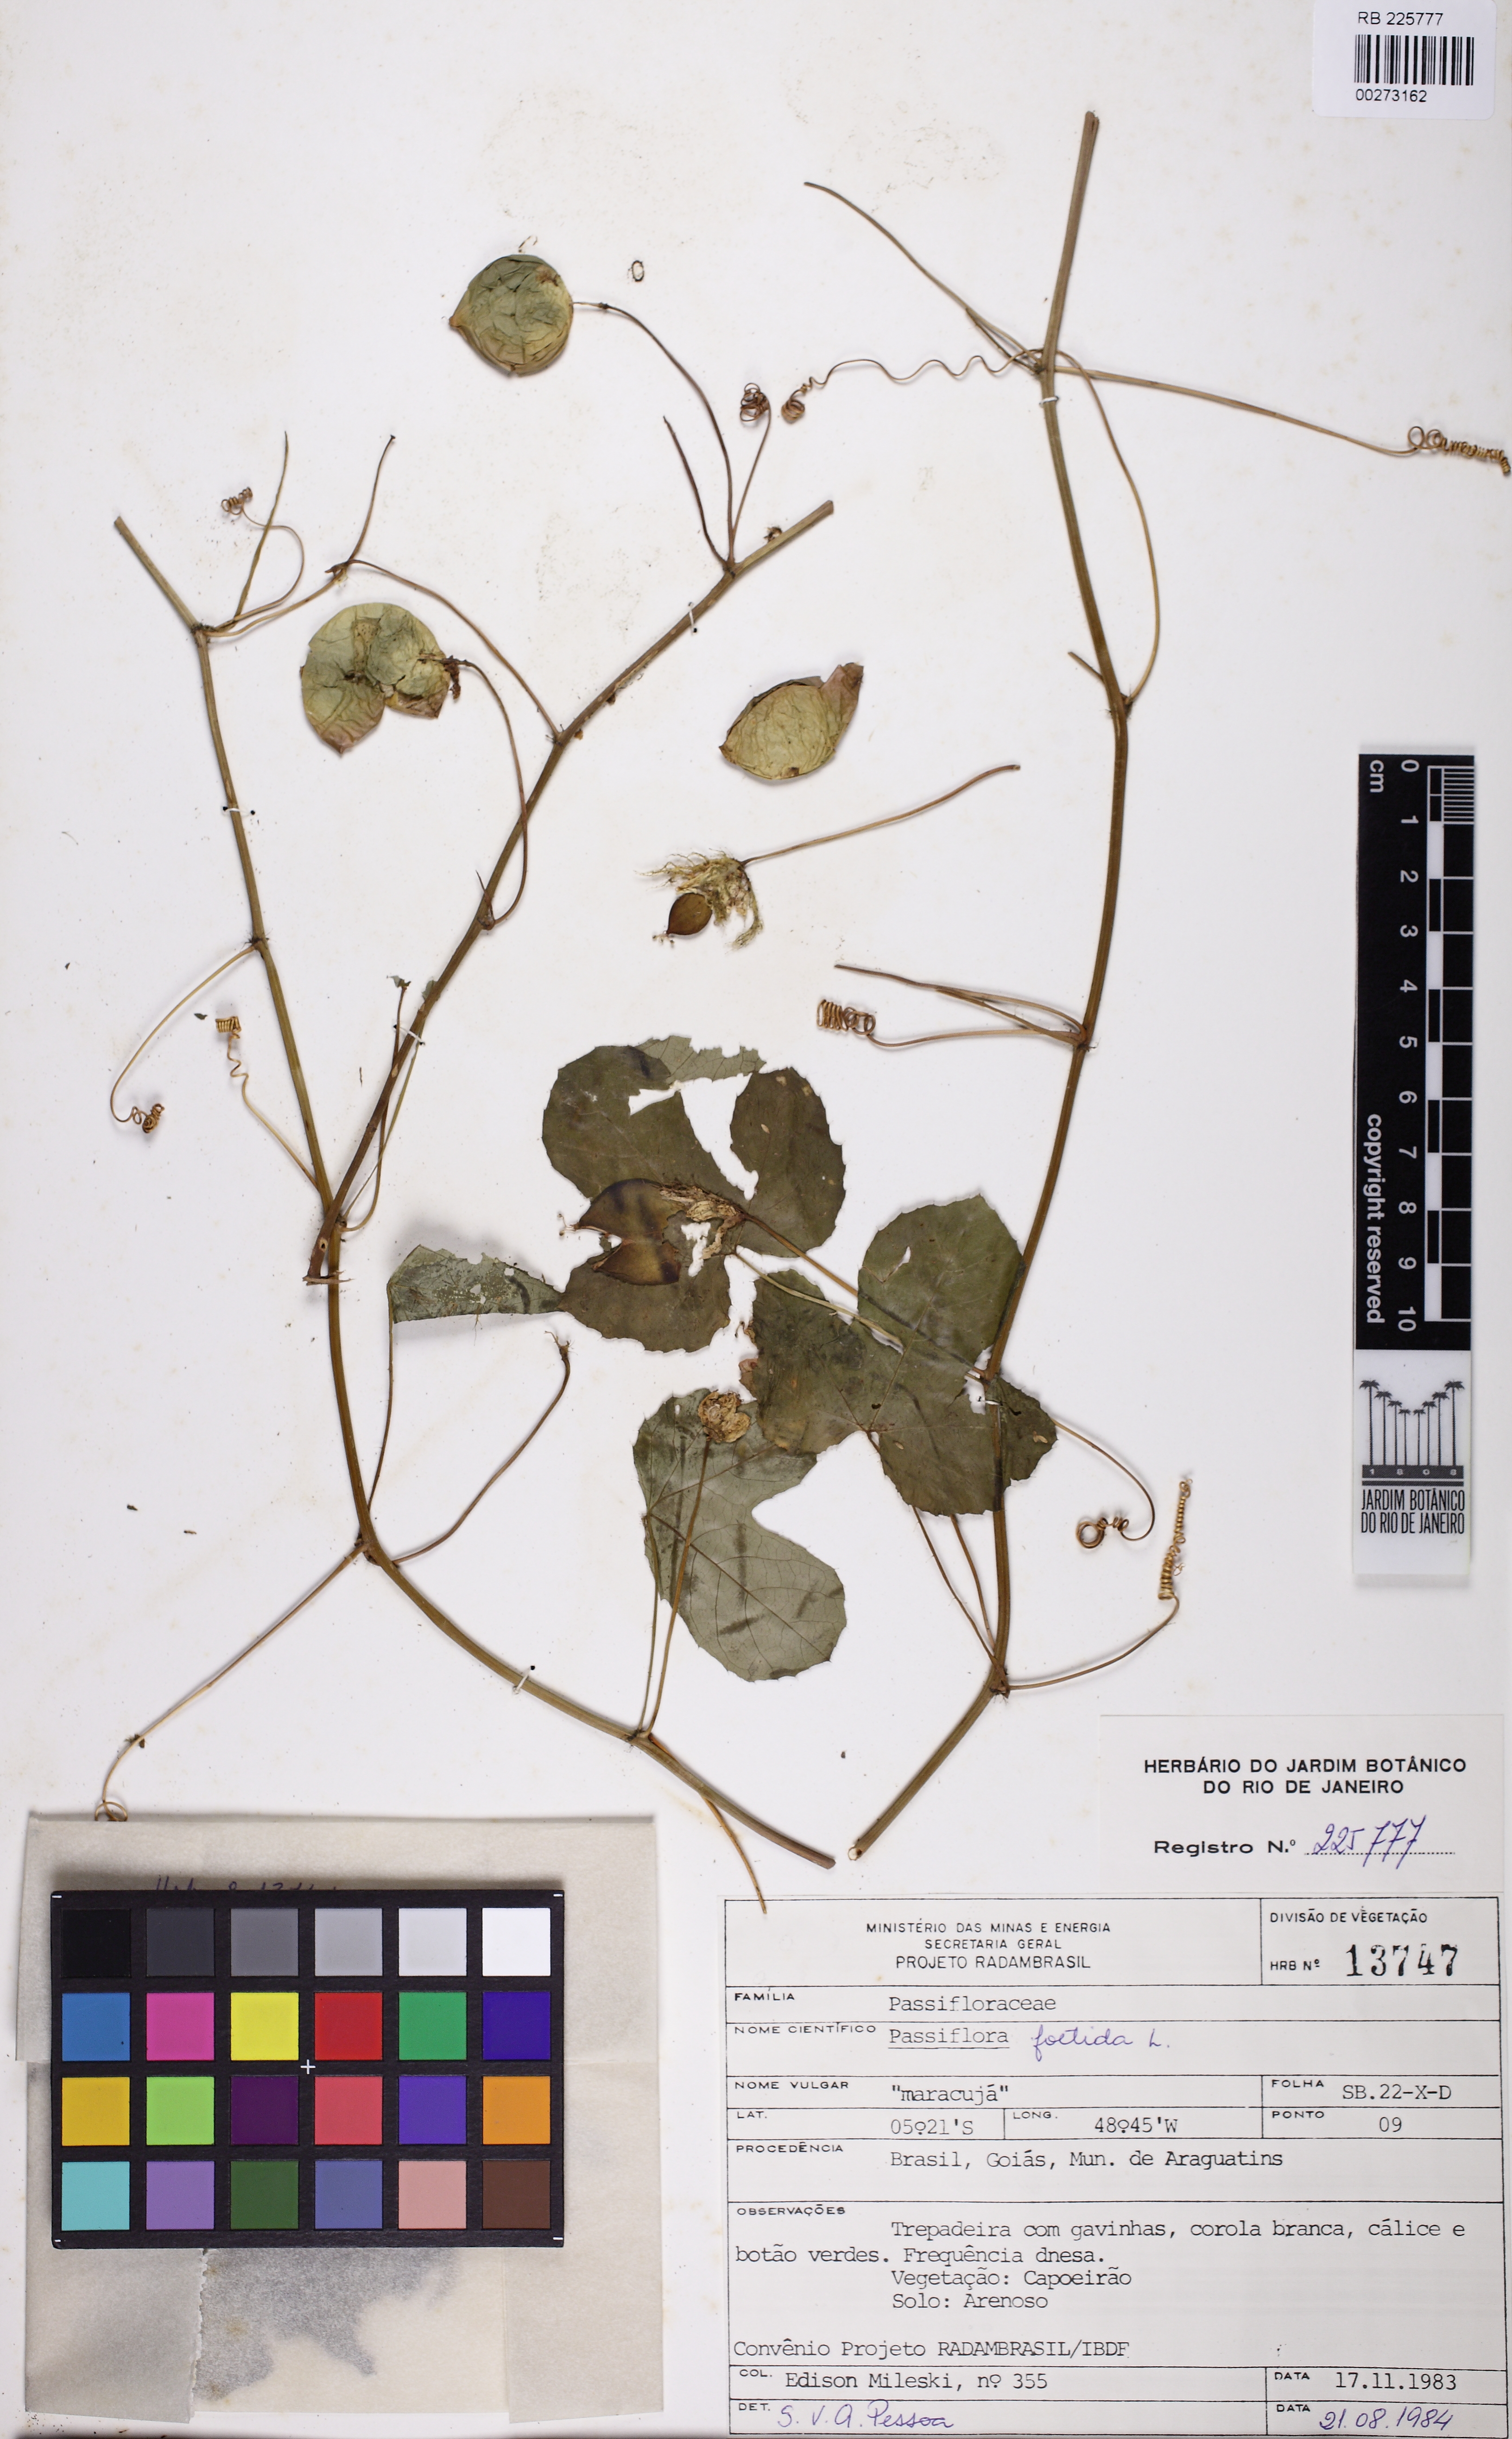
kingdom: Plantae
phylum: Tracheophyta
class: Magnoliopsida
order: Malpighiales
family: Passifloraceae
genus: Passiflora
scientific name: Passiflora foetida
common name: Fetid passionflower
